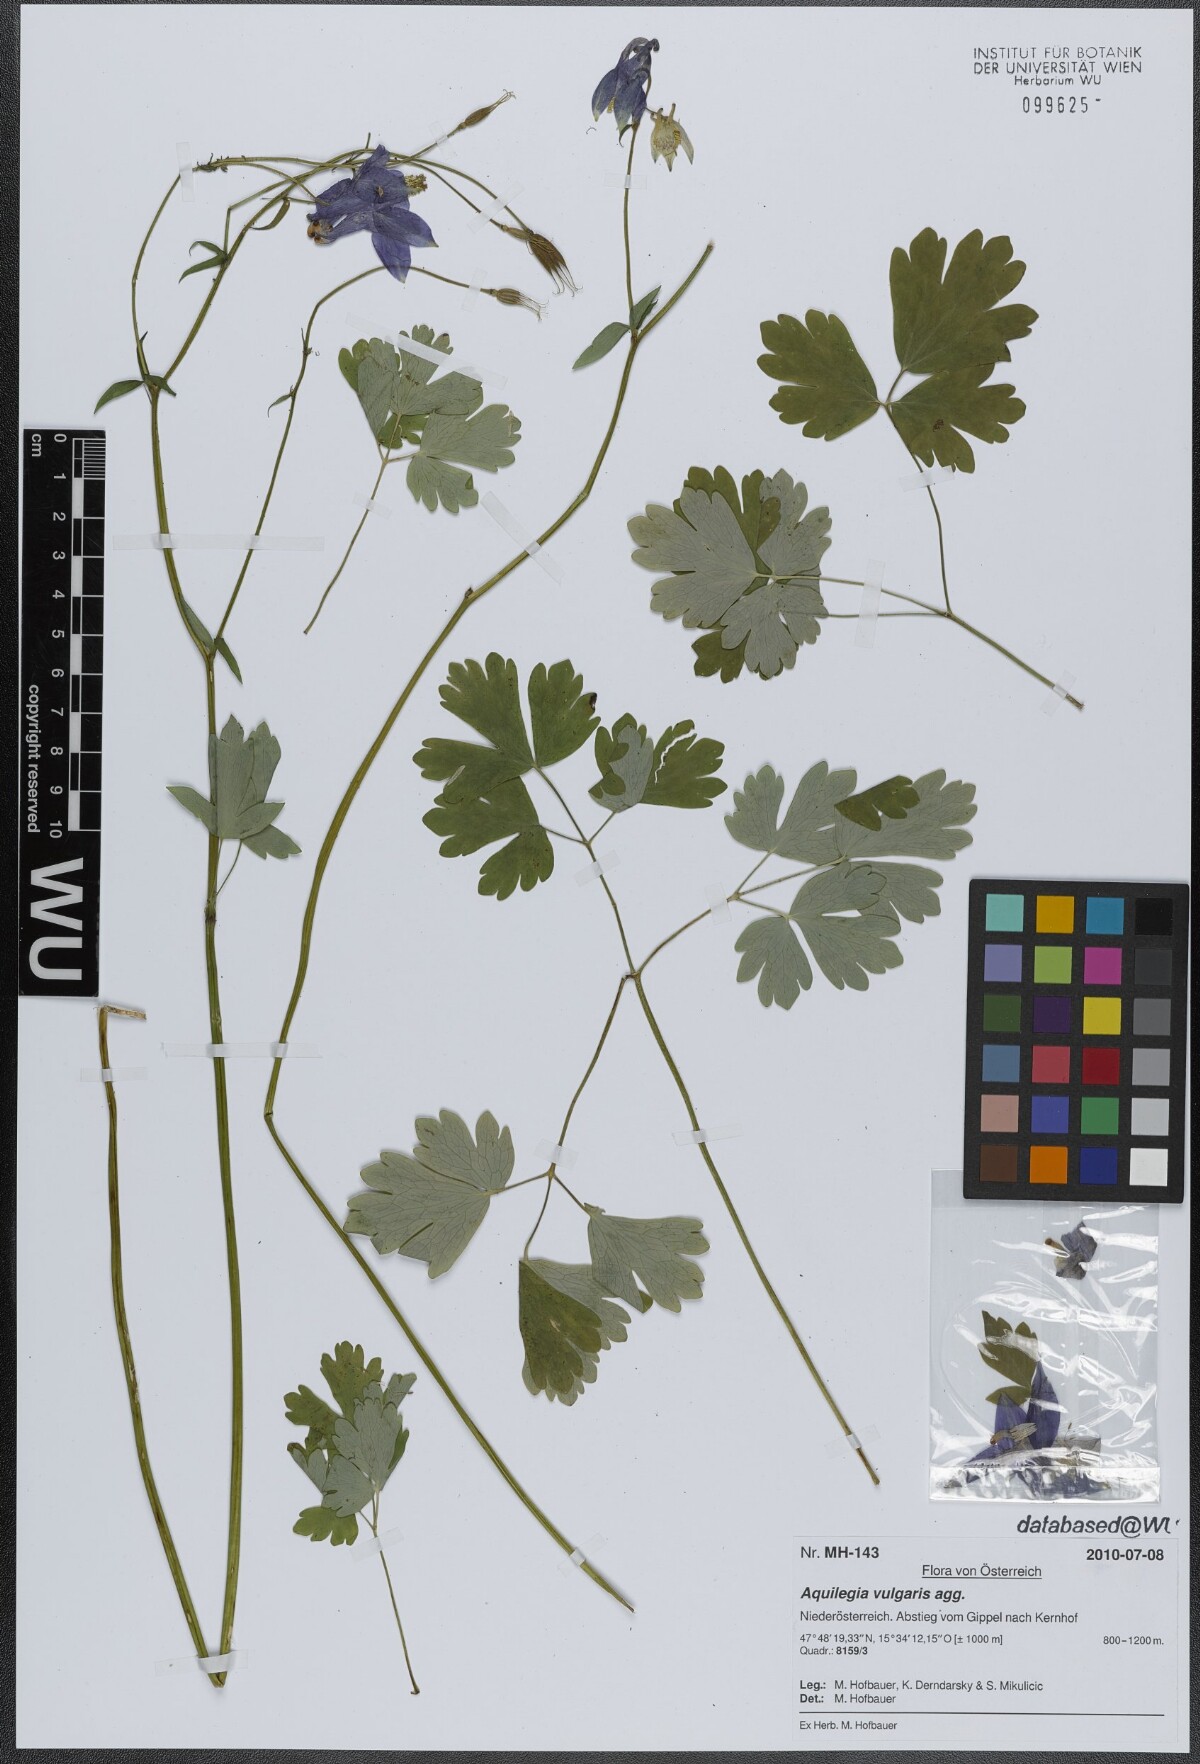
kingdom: Plantae
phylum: Tracheophyta
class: Magnoliopsida
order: Ranunculales
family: Ranunculaceae
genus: Aquilegia
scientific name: Aquilegia vulgaris
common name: Columbine
